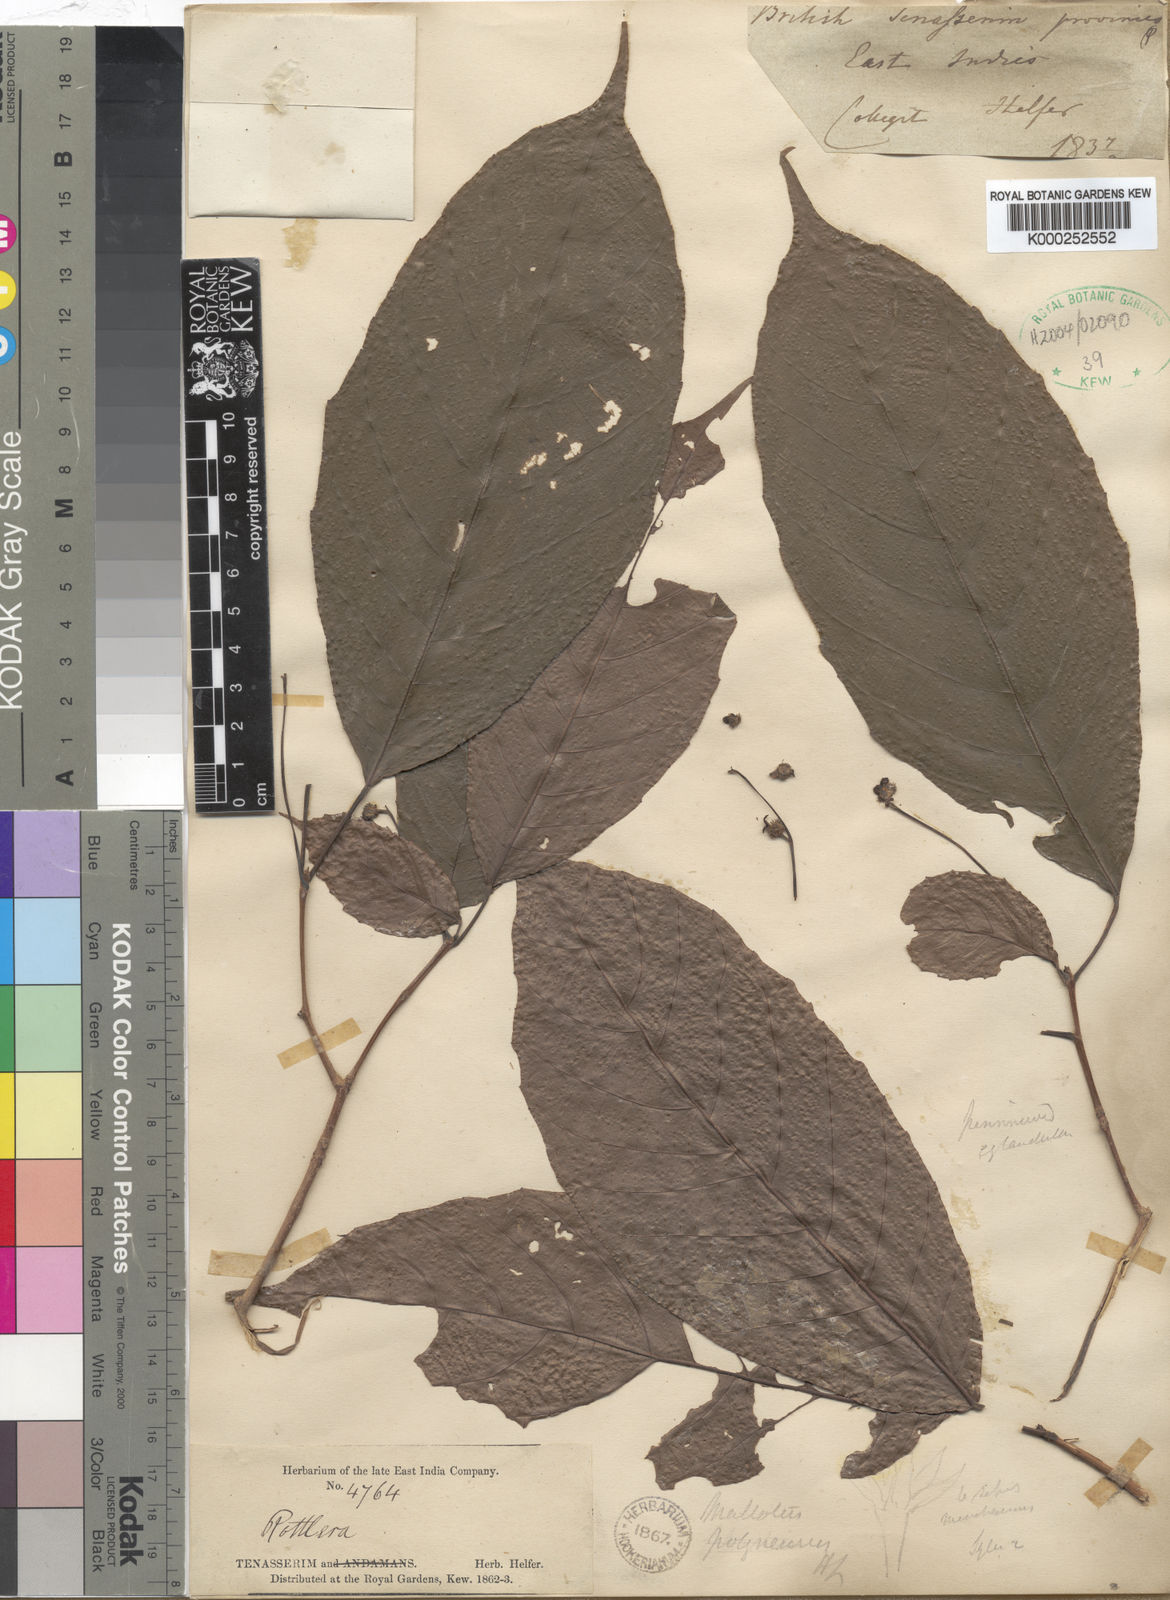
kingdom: Plantae
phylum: Tracheophyta
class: Magnoliopsida
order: Malpighiales
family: Euphorbiaceae
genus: Mallotus
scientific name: Mallotus khasianus
